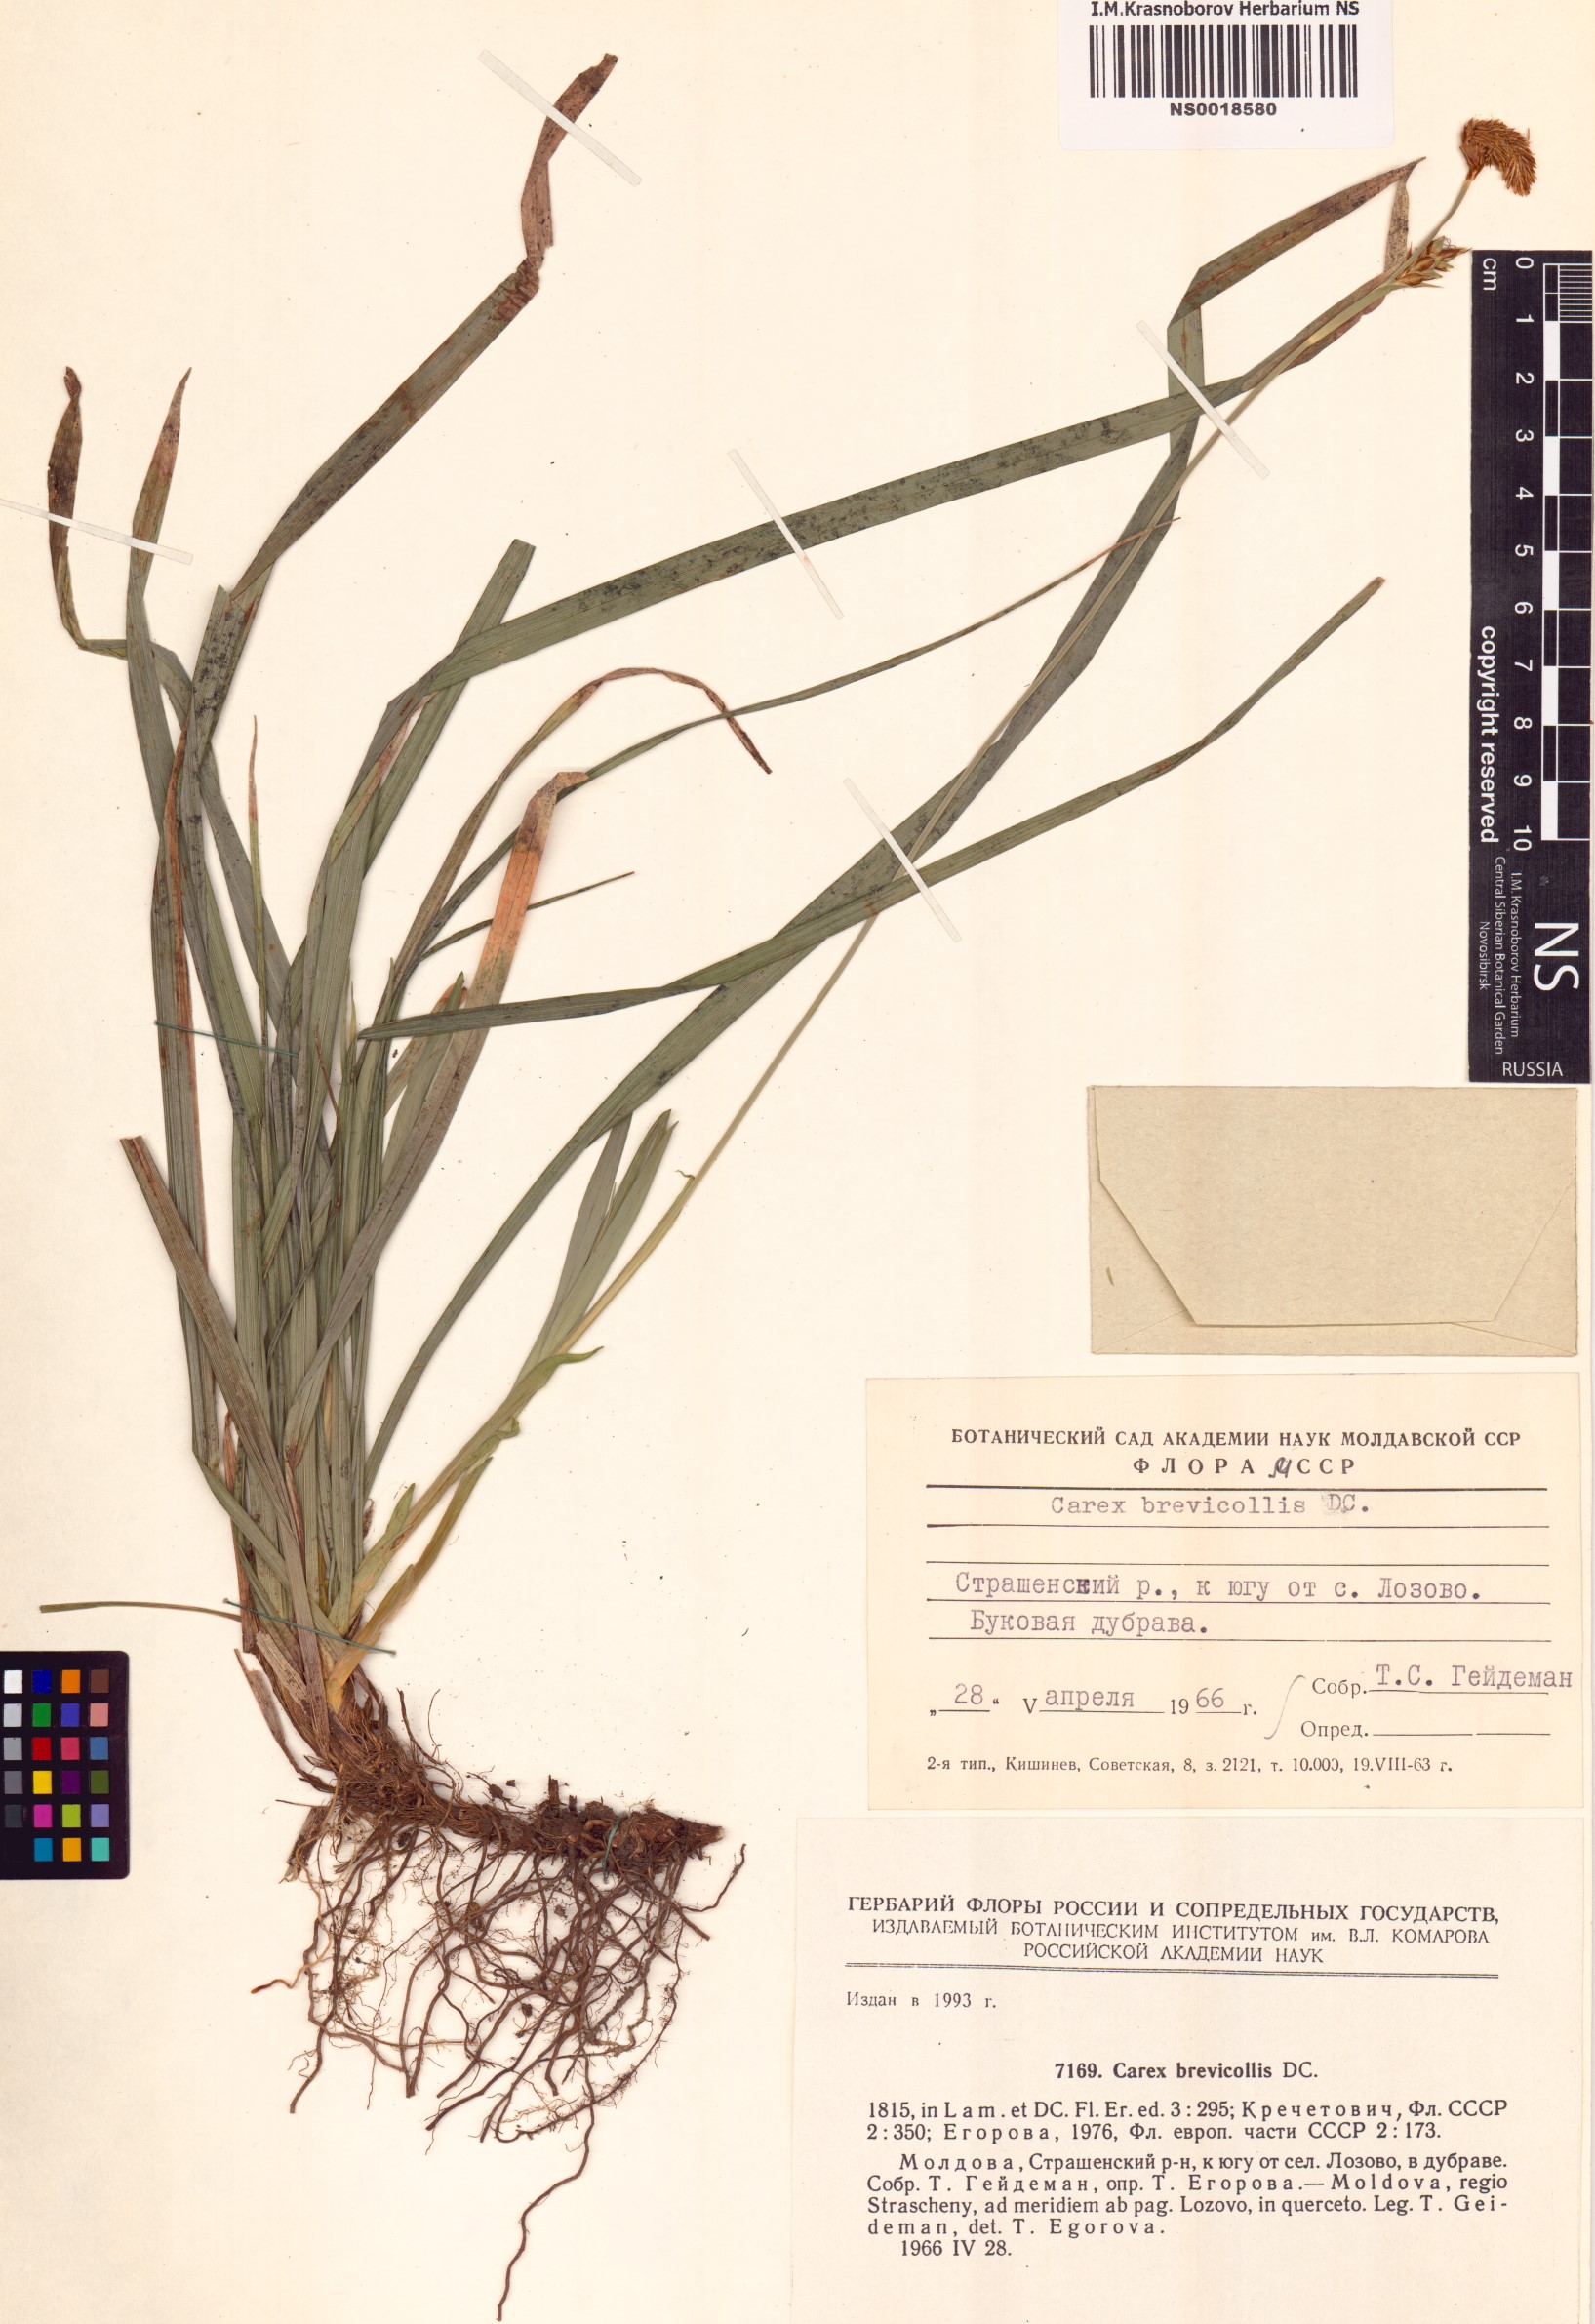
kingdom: Plantae
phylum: Tracheophyta
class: Liliopsida
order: Poales
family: Cyperaceae
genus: Carex
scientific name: Carex brevicollis
